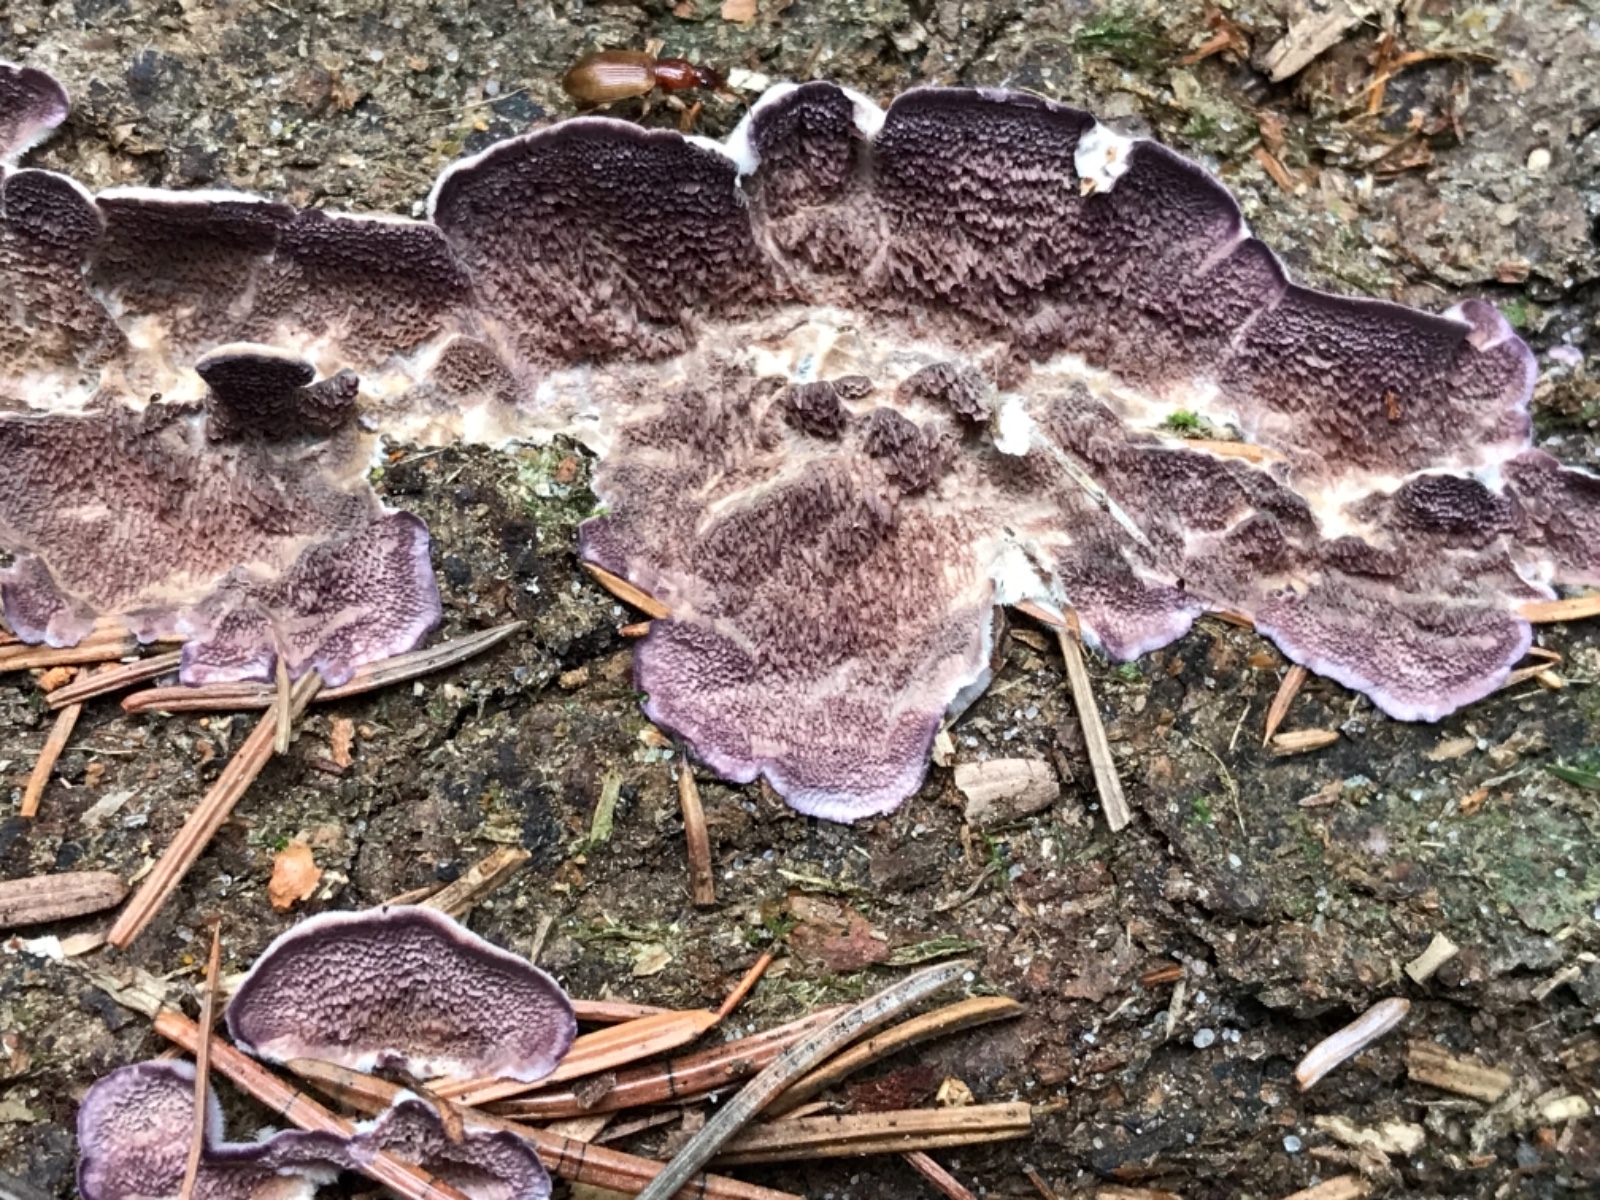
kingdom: Fungi
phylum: Basidiomycota
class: Agaricomycetes
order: Hymenochaetales
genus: Trichaptum
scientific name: Trichaptum abietinum
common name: almindelig violporesvamp
